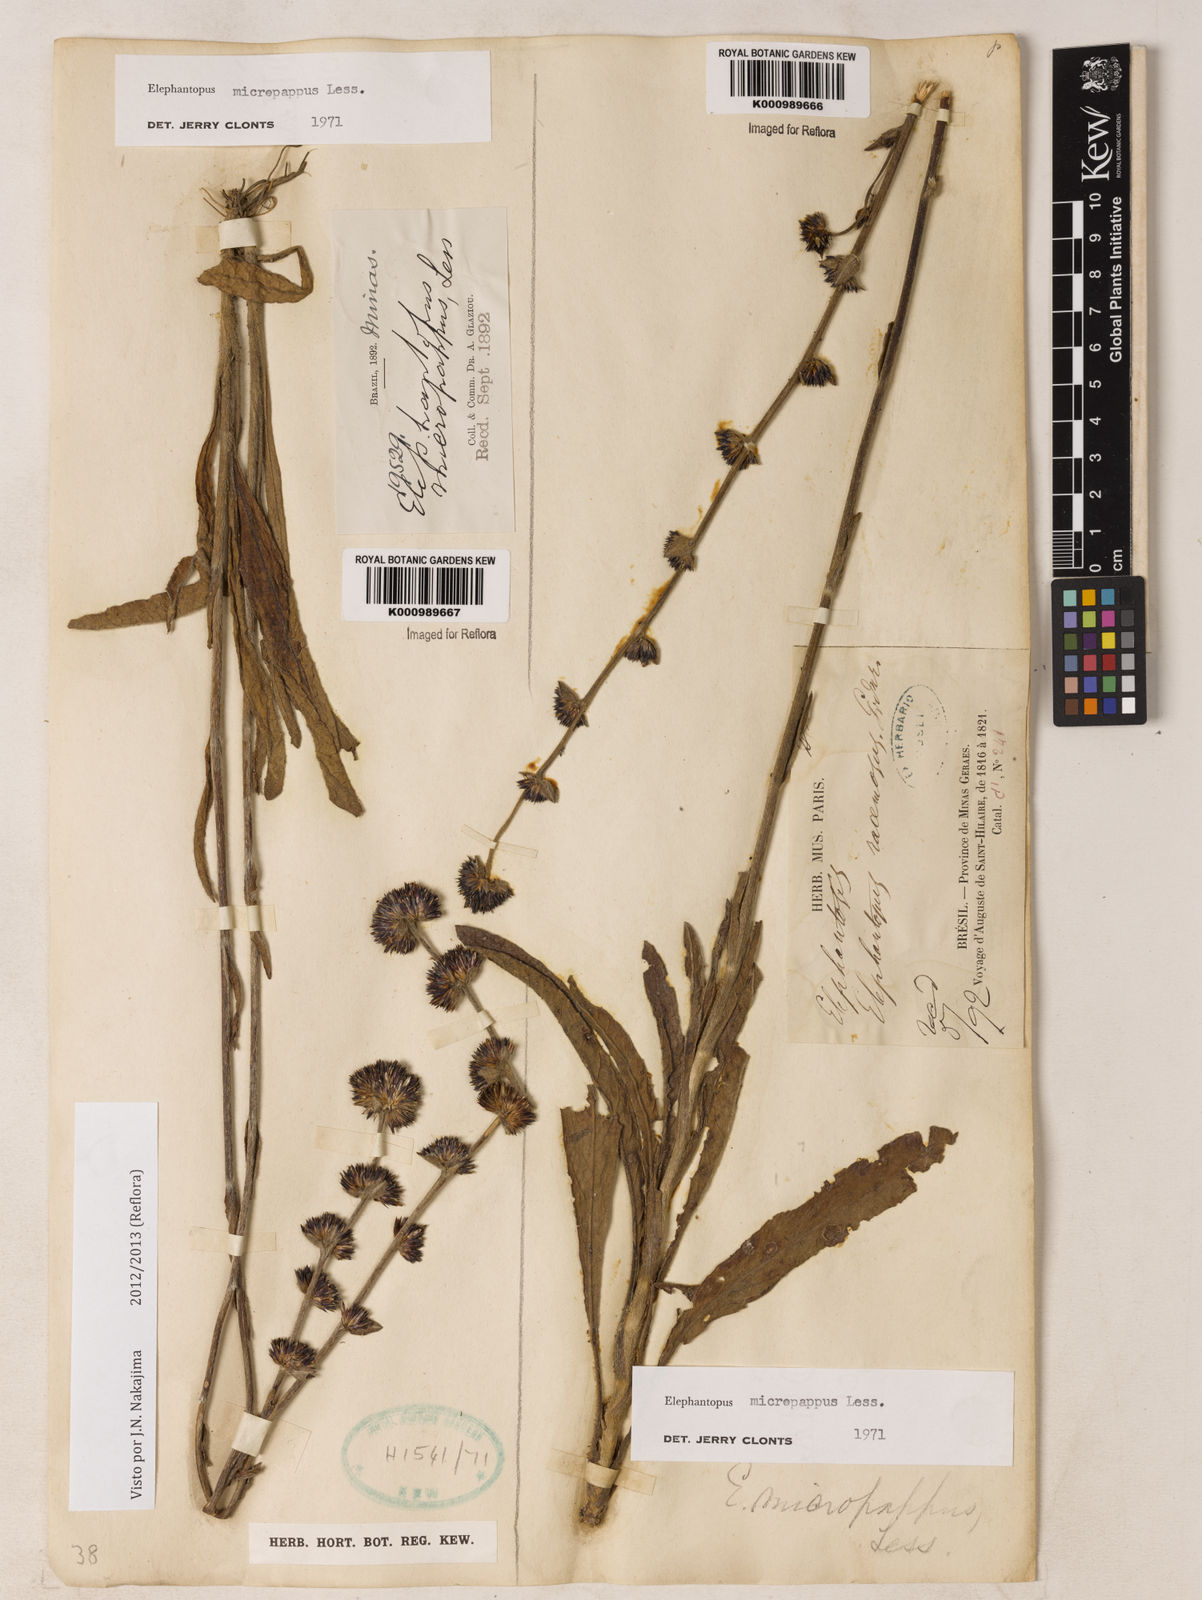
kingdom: Plantae
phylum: Tracheophyta
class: Magnoliopsida
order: Asterales
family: Asteraceae
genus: Elephantopus
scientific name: Elephantopus micropappus
